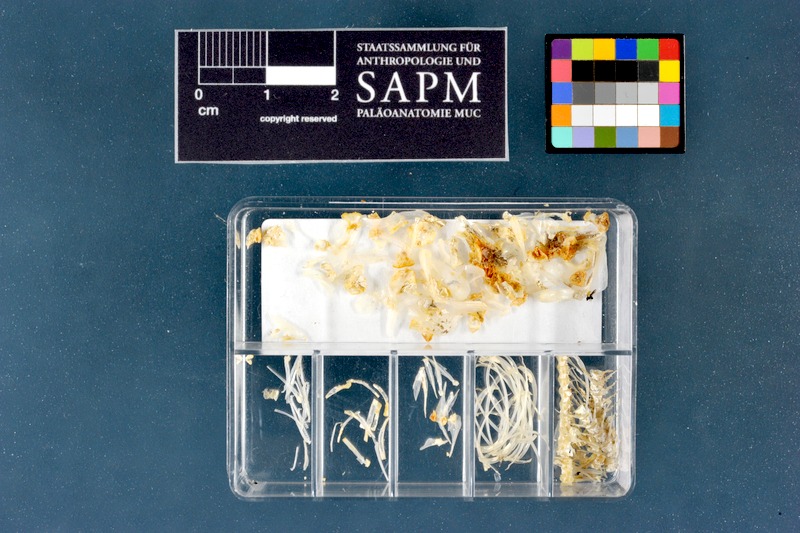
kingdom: Animalia
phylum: Chordata
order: Cypriniformes
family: Cyprinidae
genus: Phoxinus
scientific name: Phoxinus phoxinus
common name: Minnow
